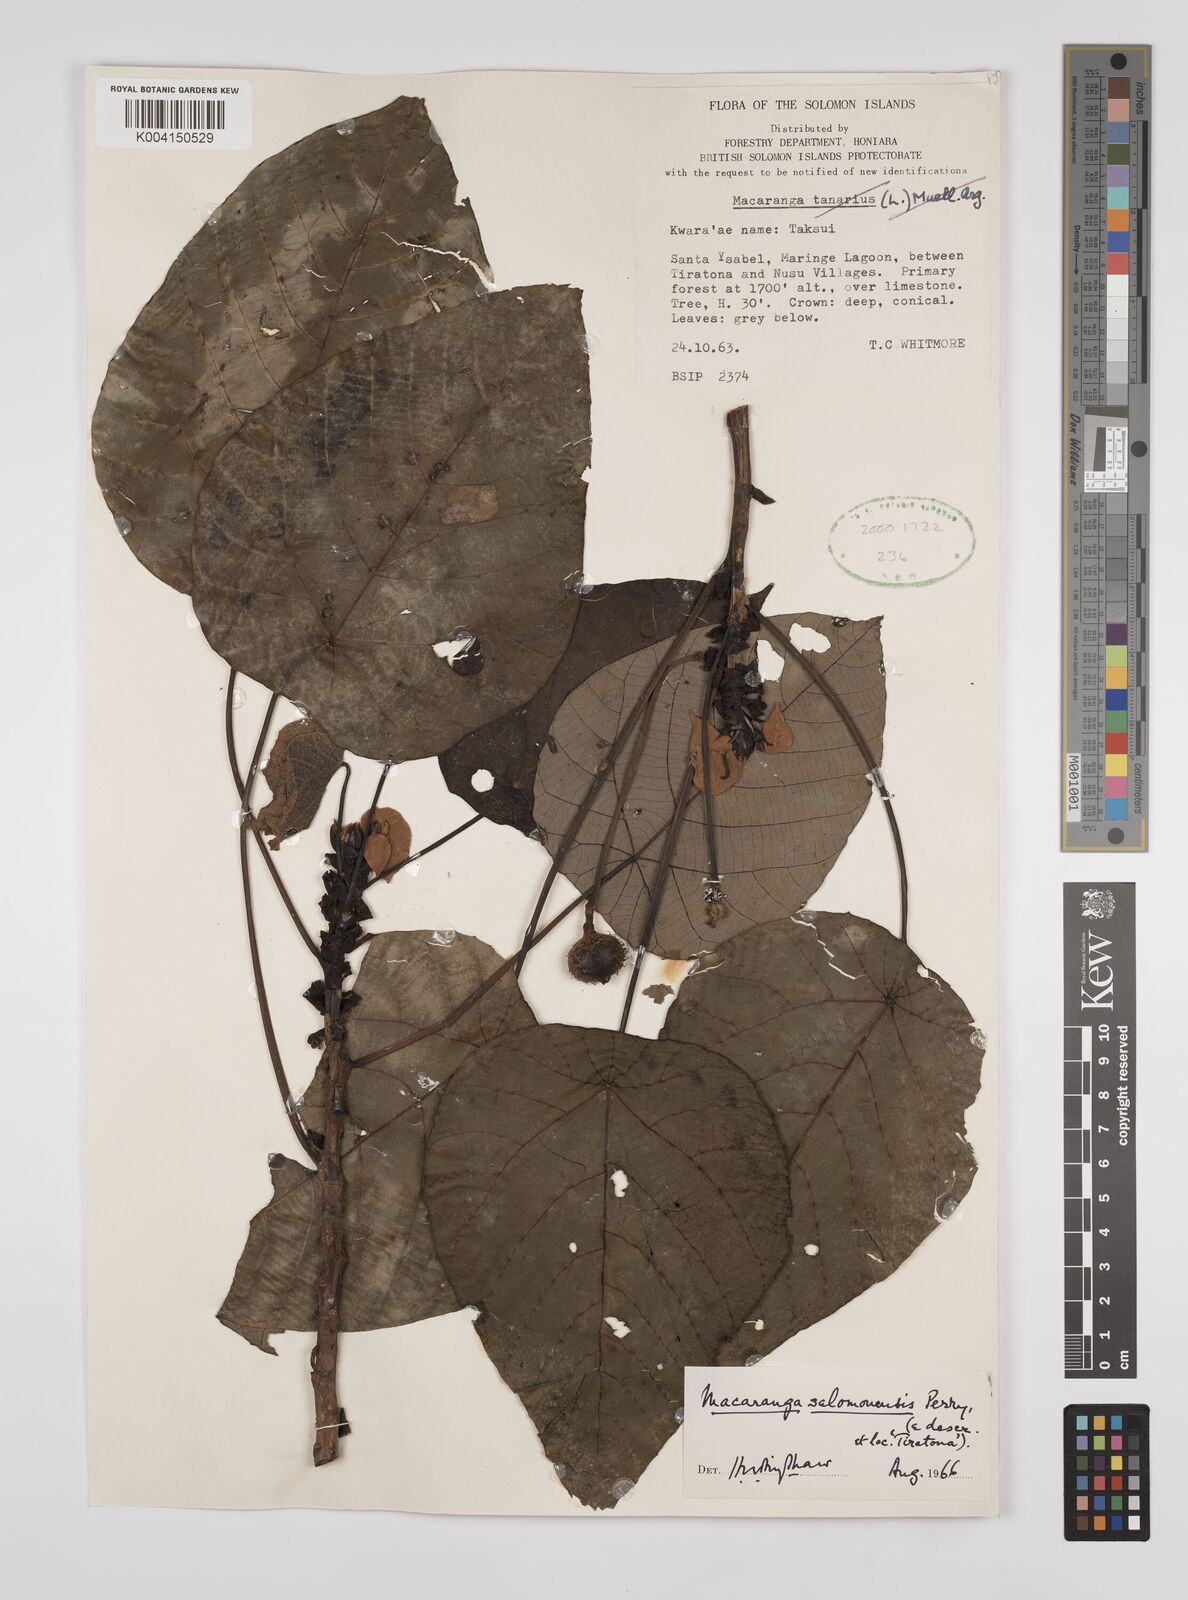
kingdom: Plantae
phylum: Tracheophyta
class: Magnoliopsida
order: Malpighiales
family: Euphorbiaceae
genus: Macaranga
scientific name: Macaranga salomonensis
